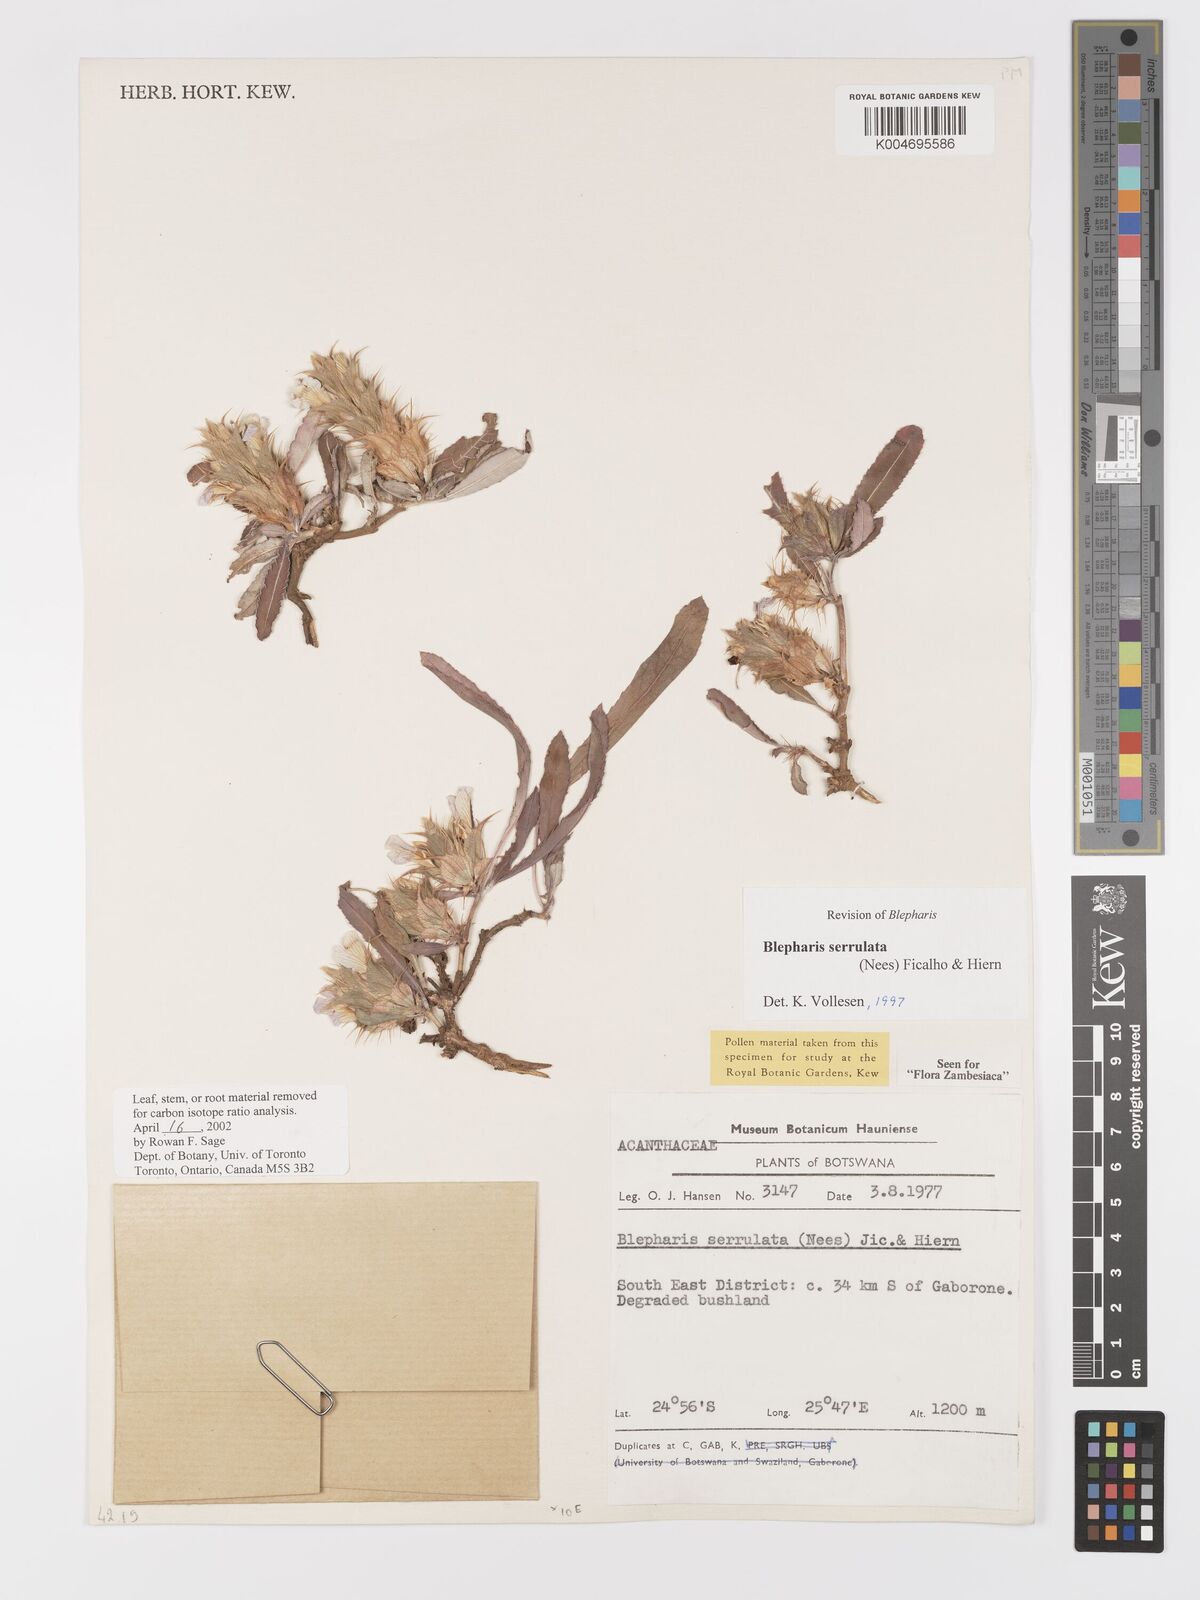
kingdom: Plantae
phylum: Tracheophyta
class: Magnoliopsida
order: Lamiales
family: Acanthaceae
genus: Blepharis
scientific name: Blepharis serrulata
